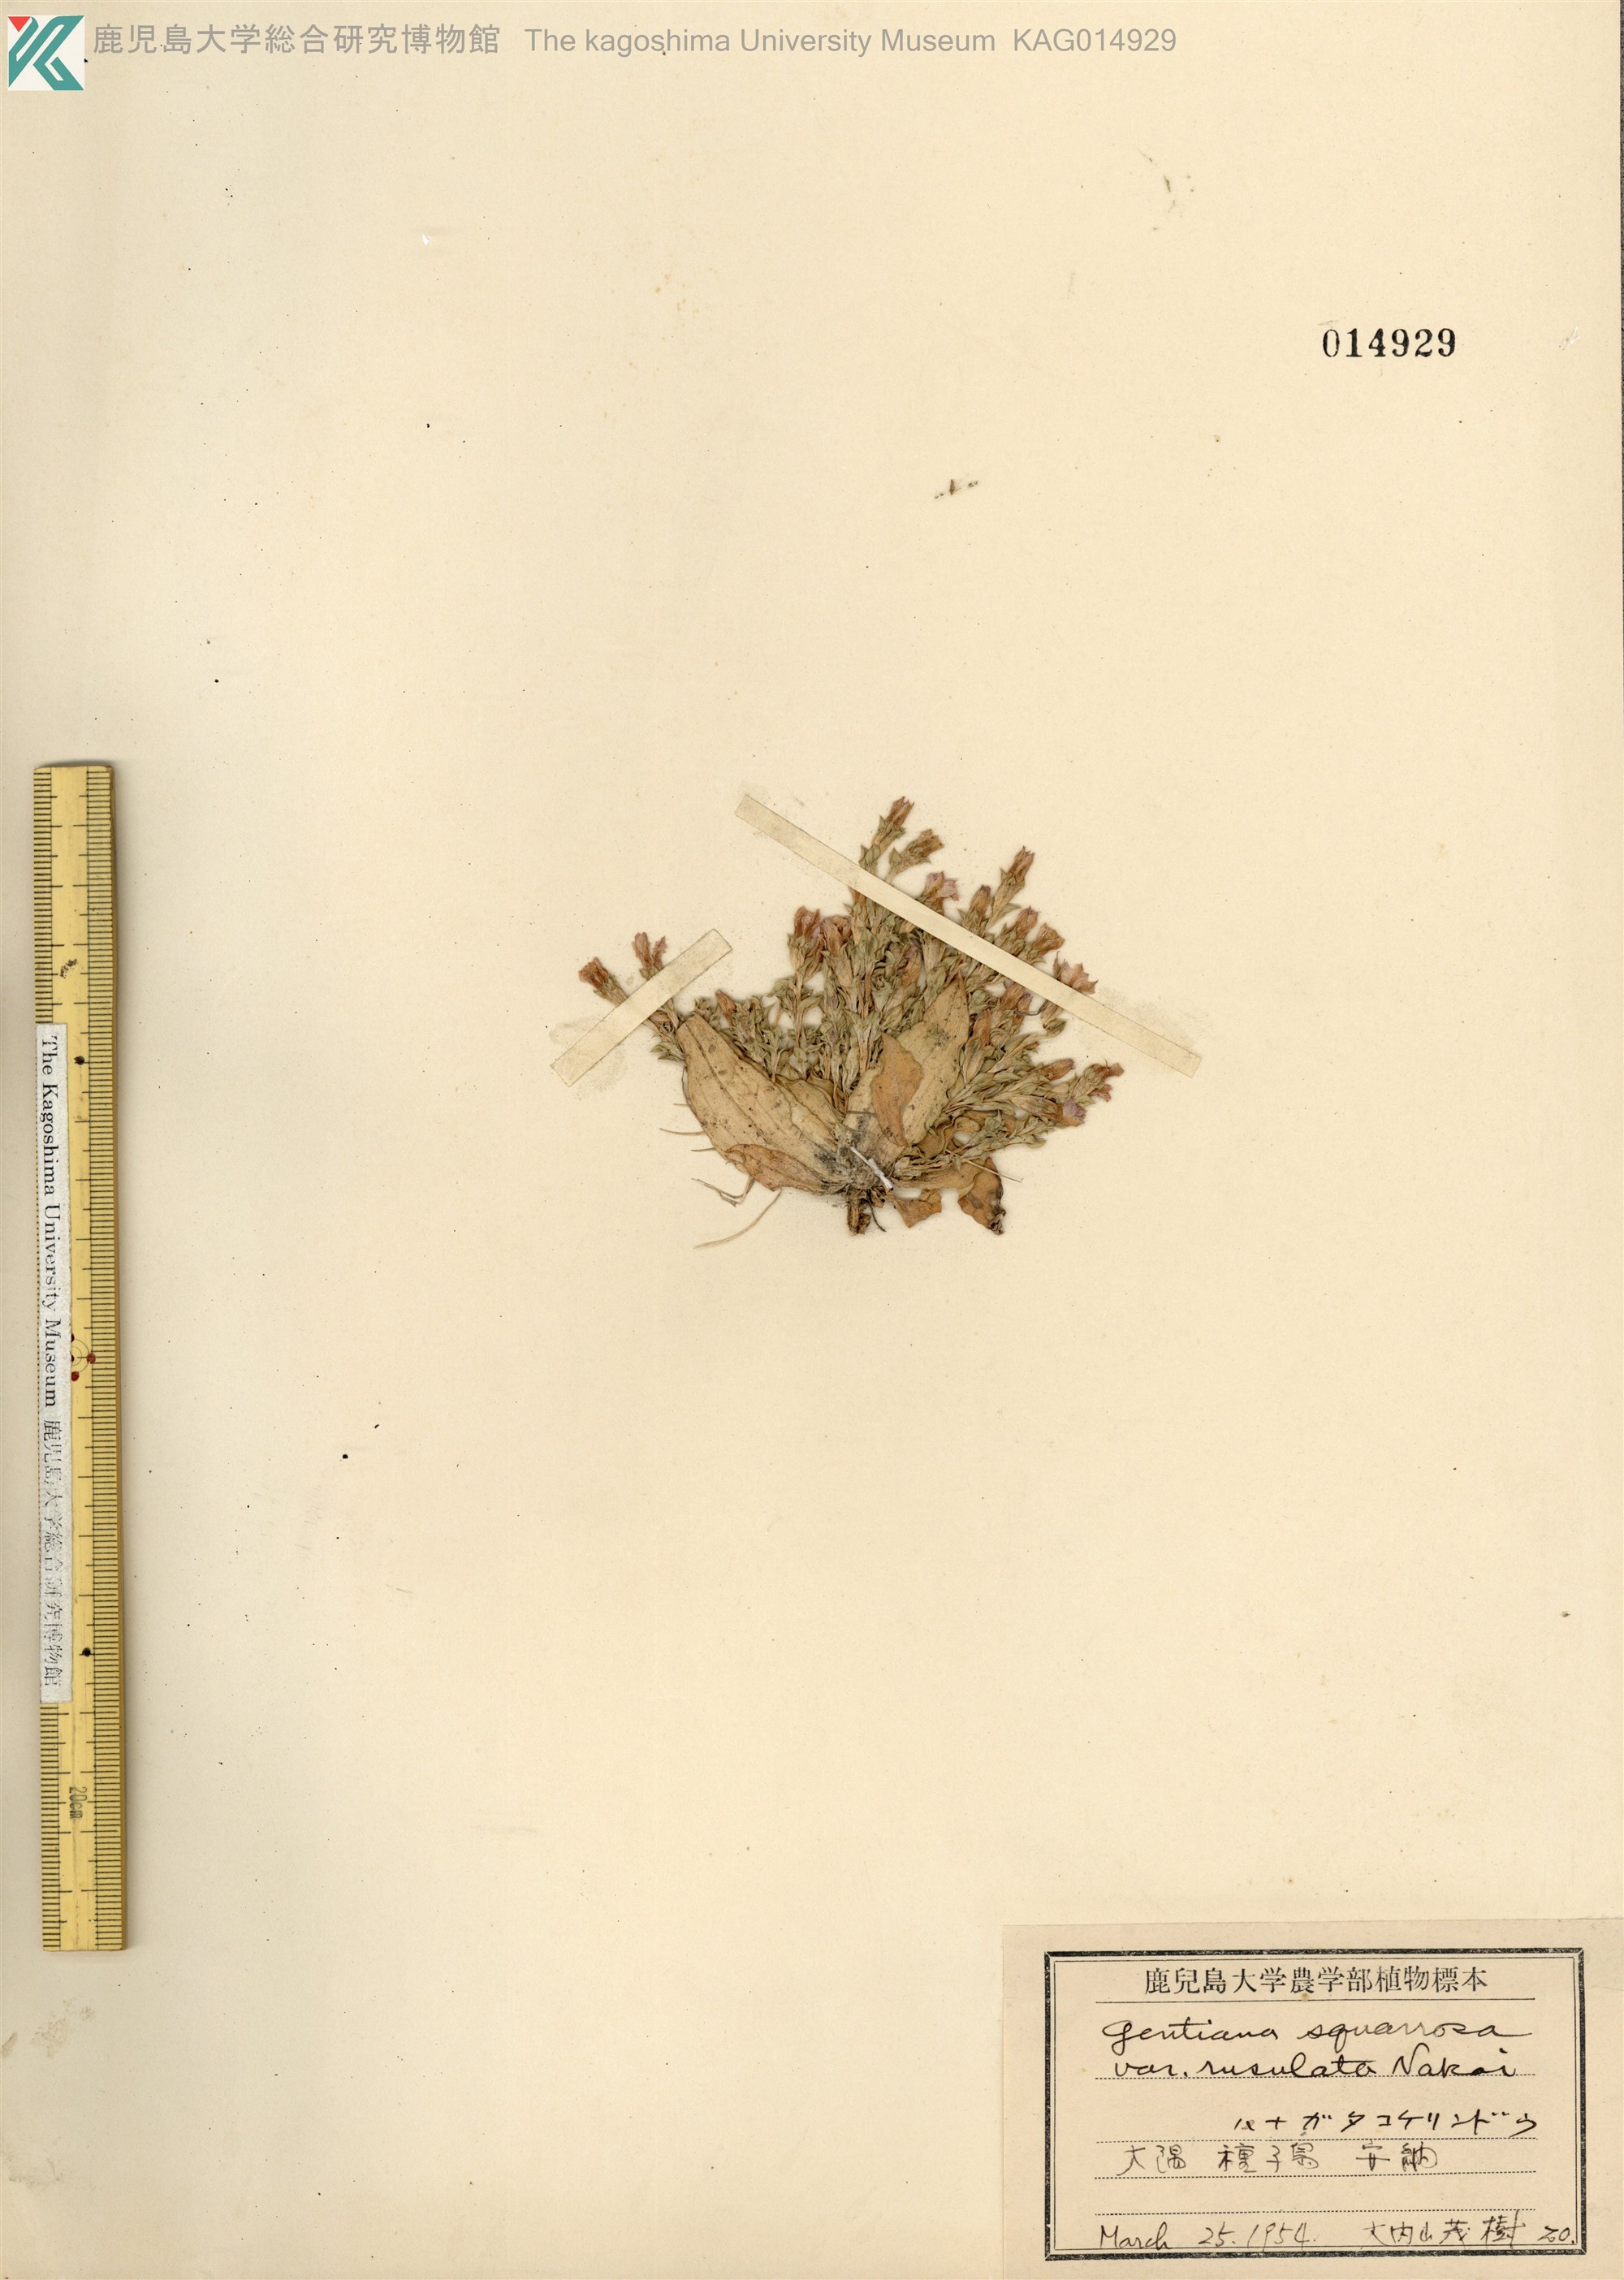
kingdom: Plantae
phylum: Tracheophyta
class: Magnoliopsida
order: Gentianales
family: Gentianaceae
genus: Gentiana
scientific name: Gentiana squarrosa
